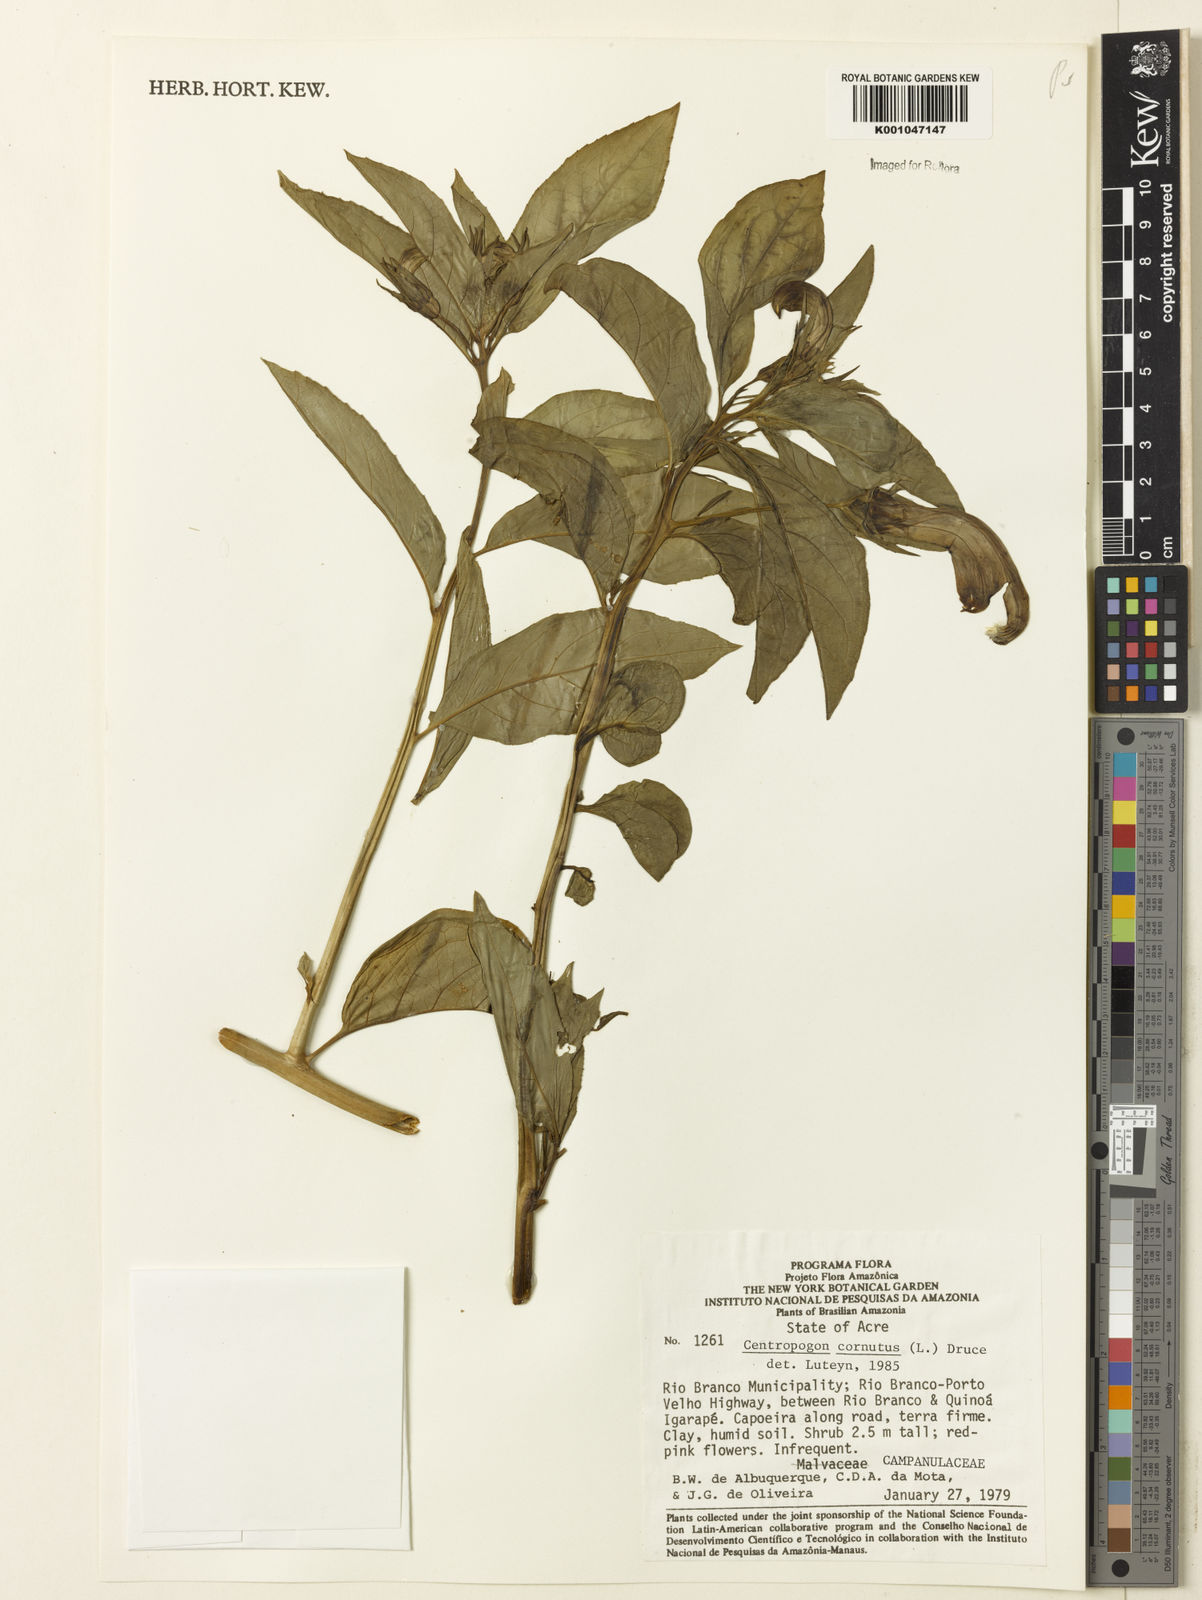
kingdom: Plantae
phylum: Tracheophyta
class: Magnoliopsida
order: Asterales
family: Campanulaceae
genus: Centropogon
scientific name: Centropogon cornutus
